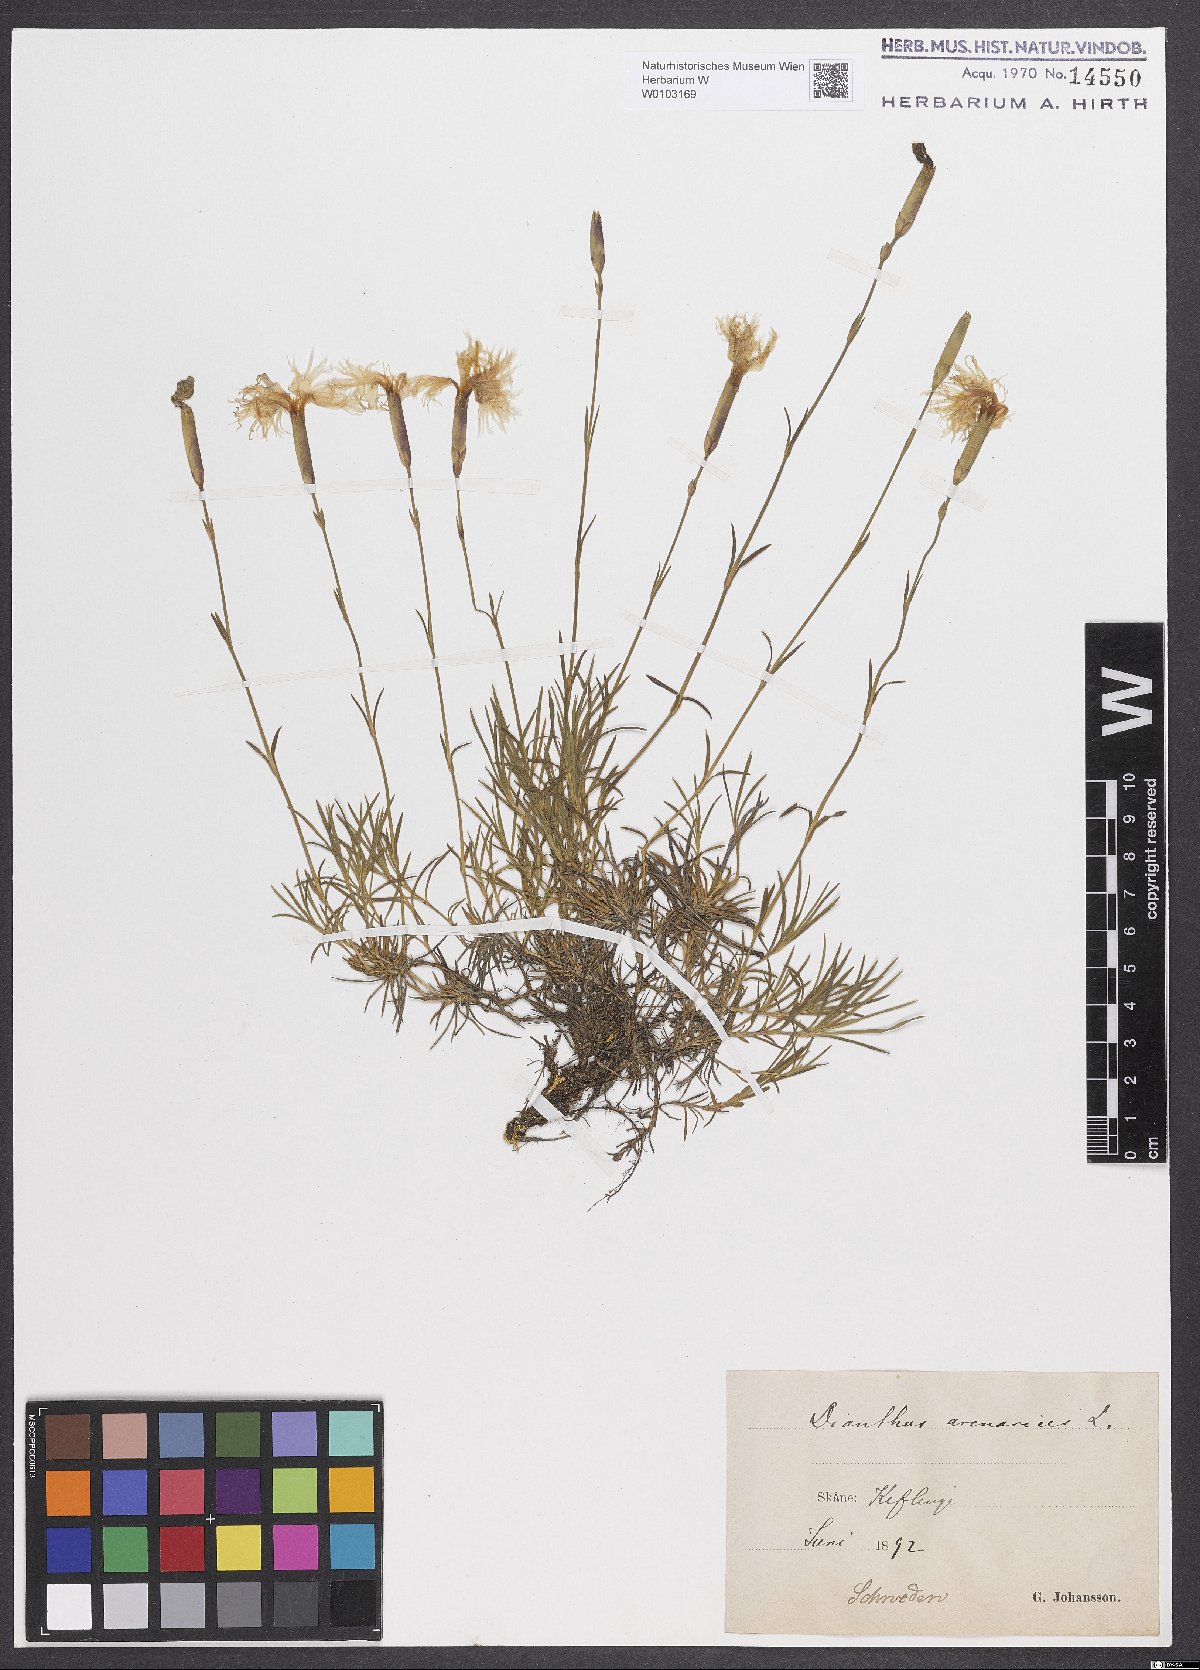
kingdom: Plantae
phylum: Tracheophyta
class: Magnoliopsida
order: Caryophyllales
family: Caryophyllaceae
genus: Dianthus
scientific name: Dianthus arenarius
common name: Stone pink
